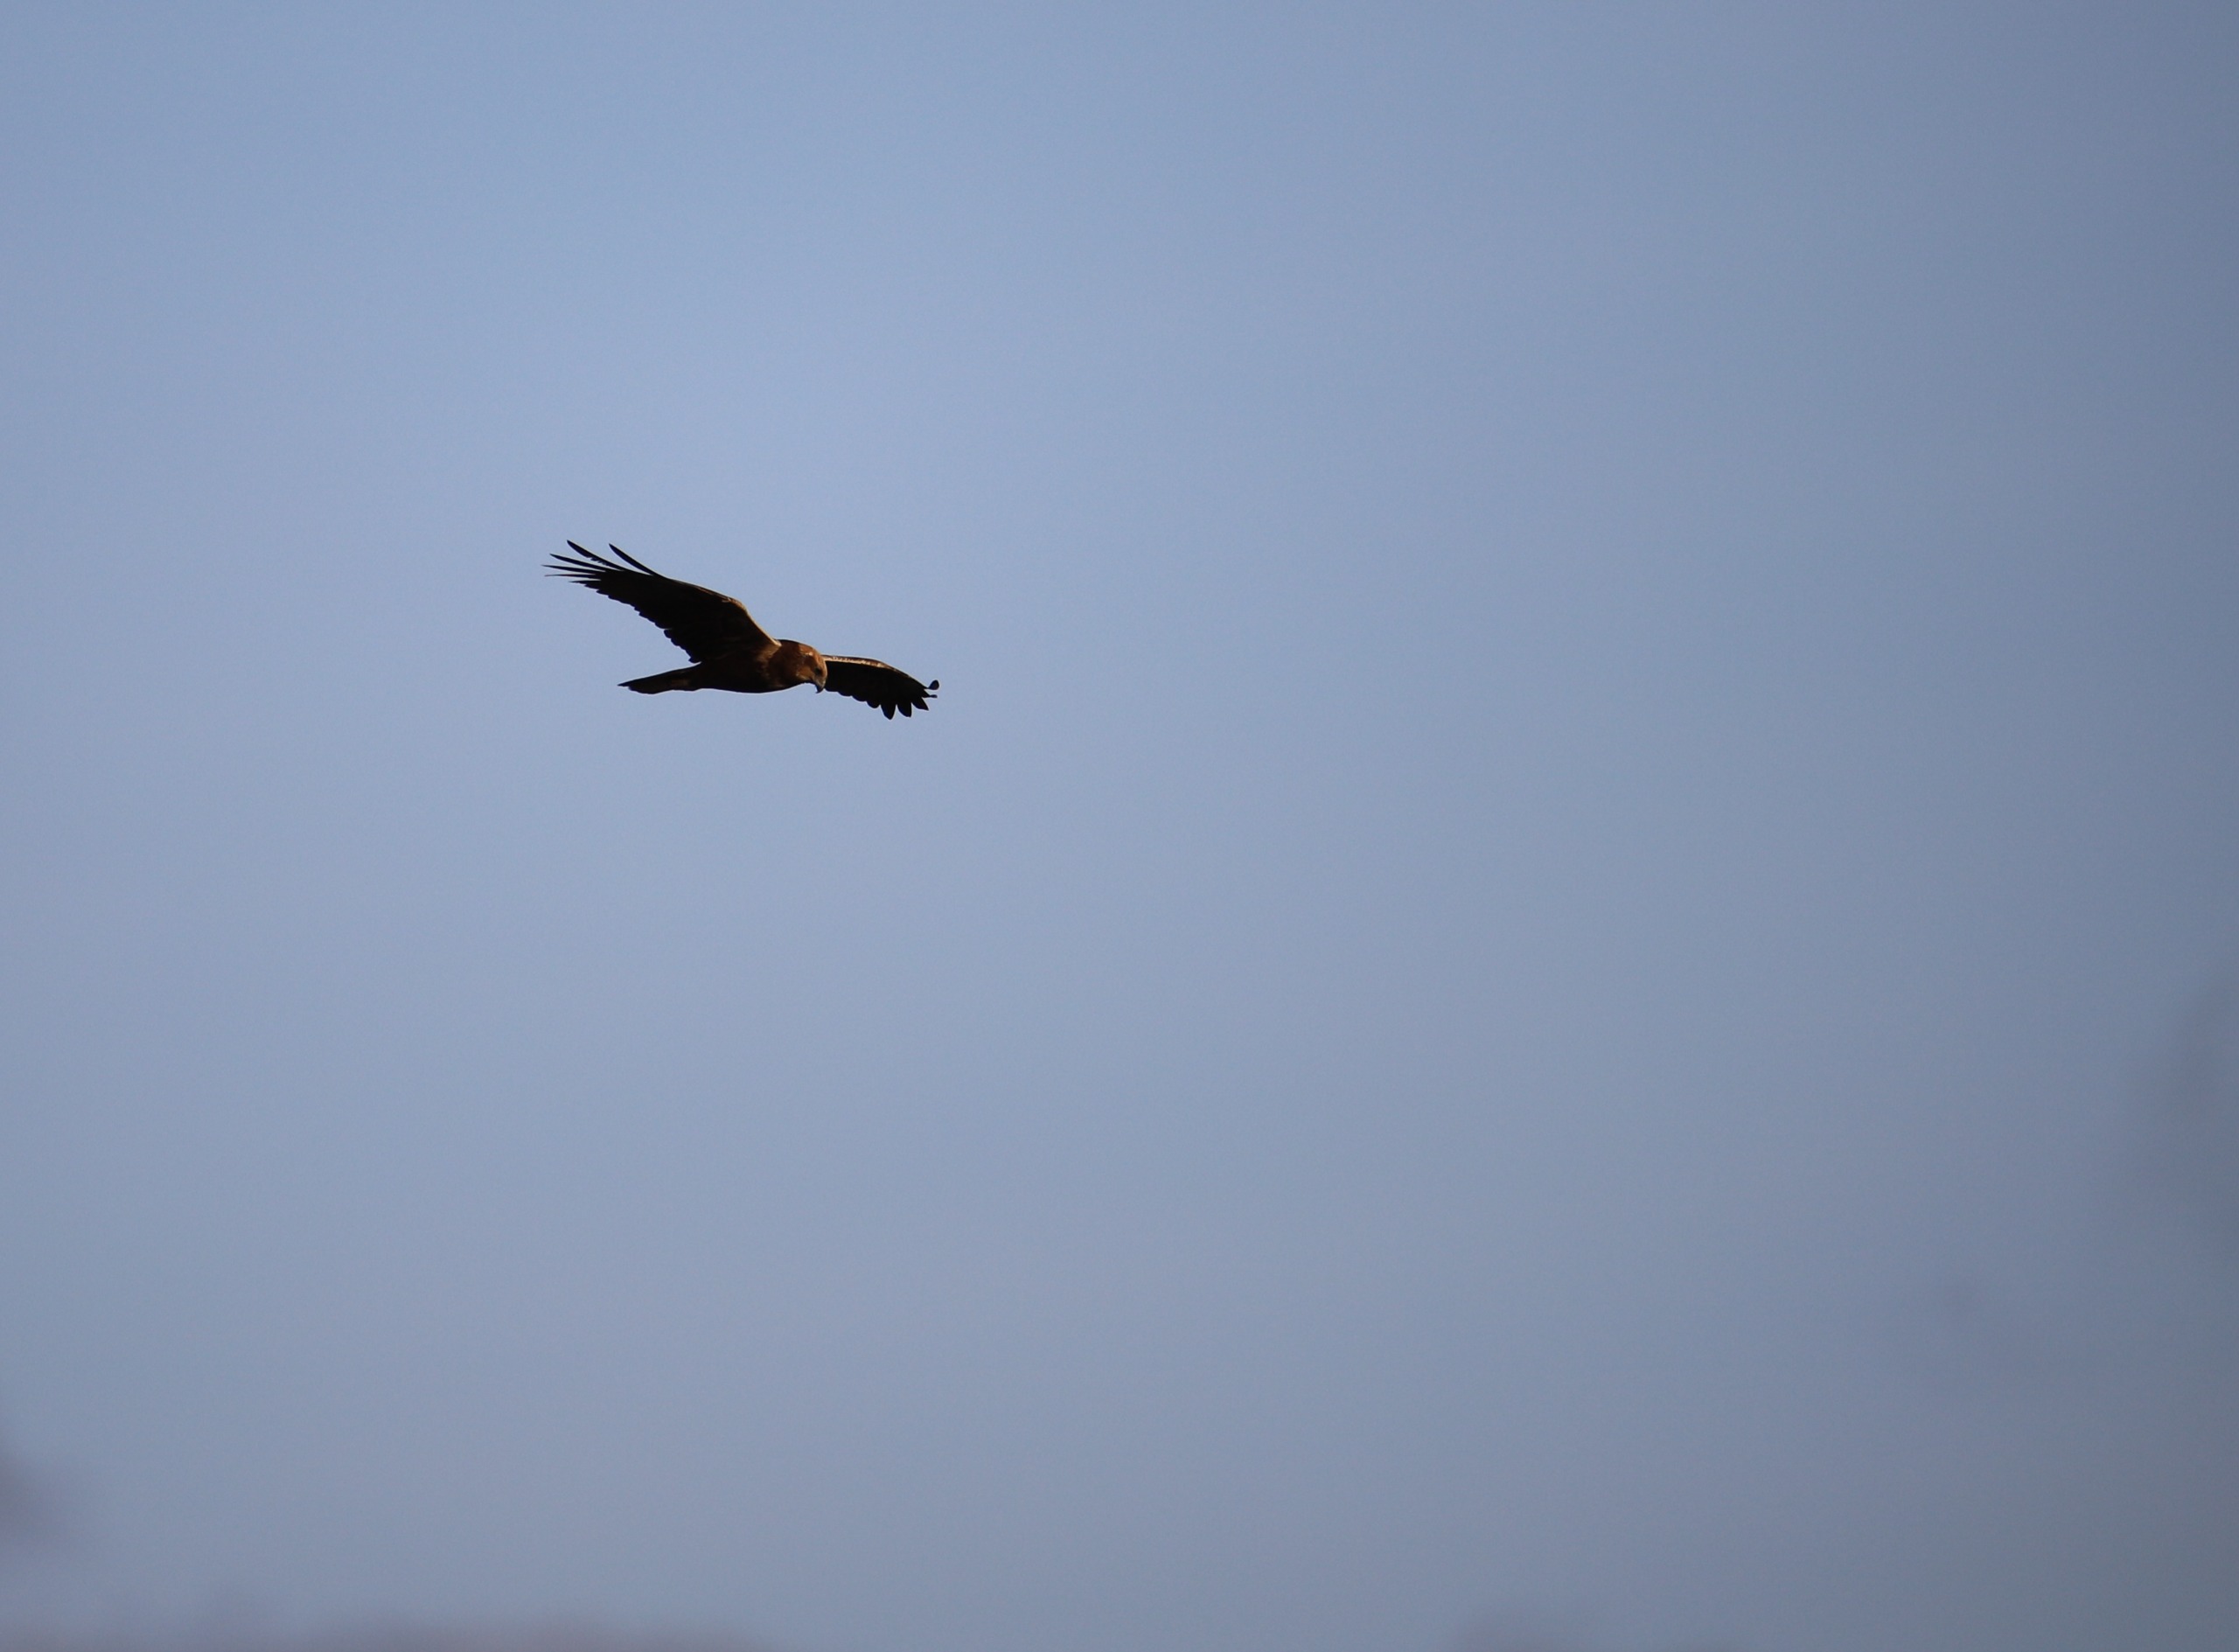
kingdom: Animalia
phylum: Chordata
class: Aves
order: Accipitriformes
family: Accipitridae
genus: Circus
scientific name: Circus aeruginosus
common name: Rørhøg
